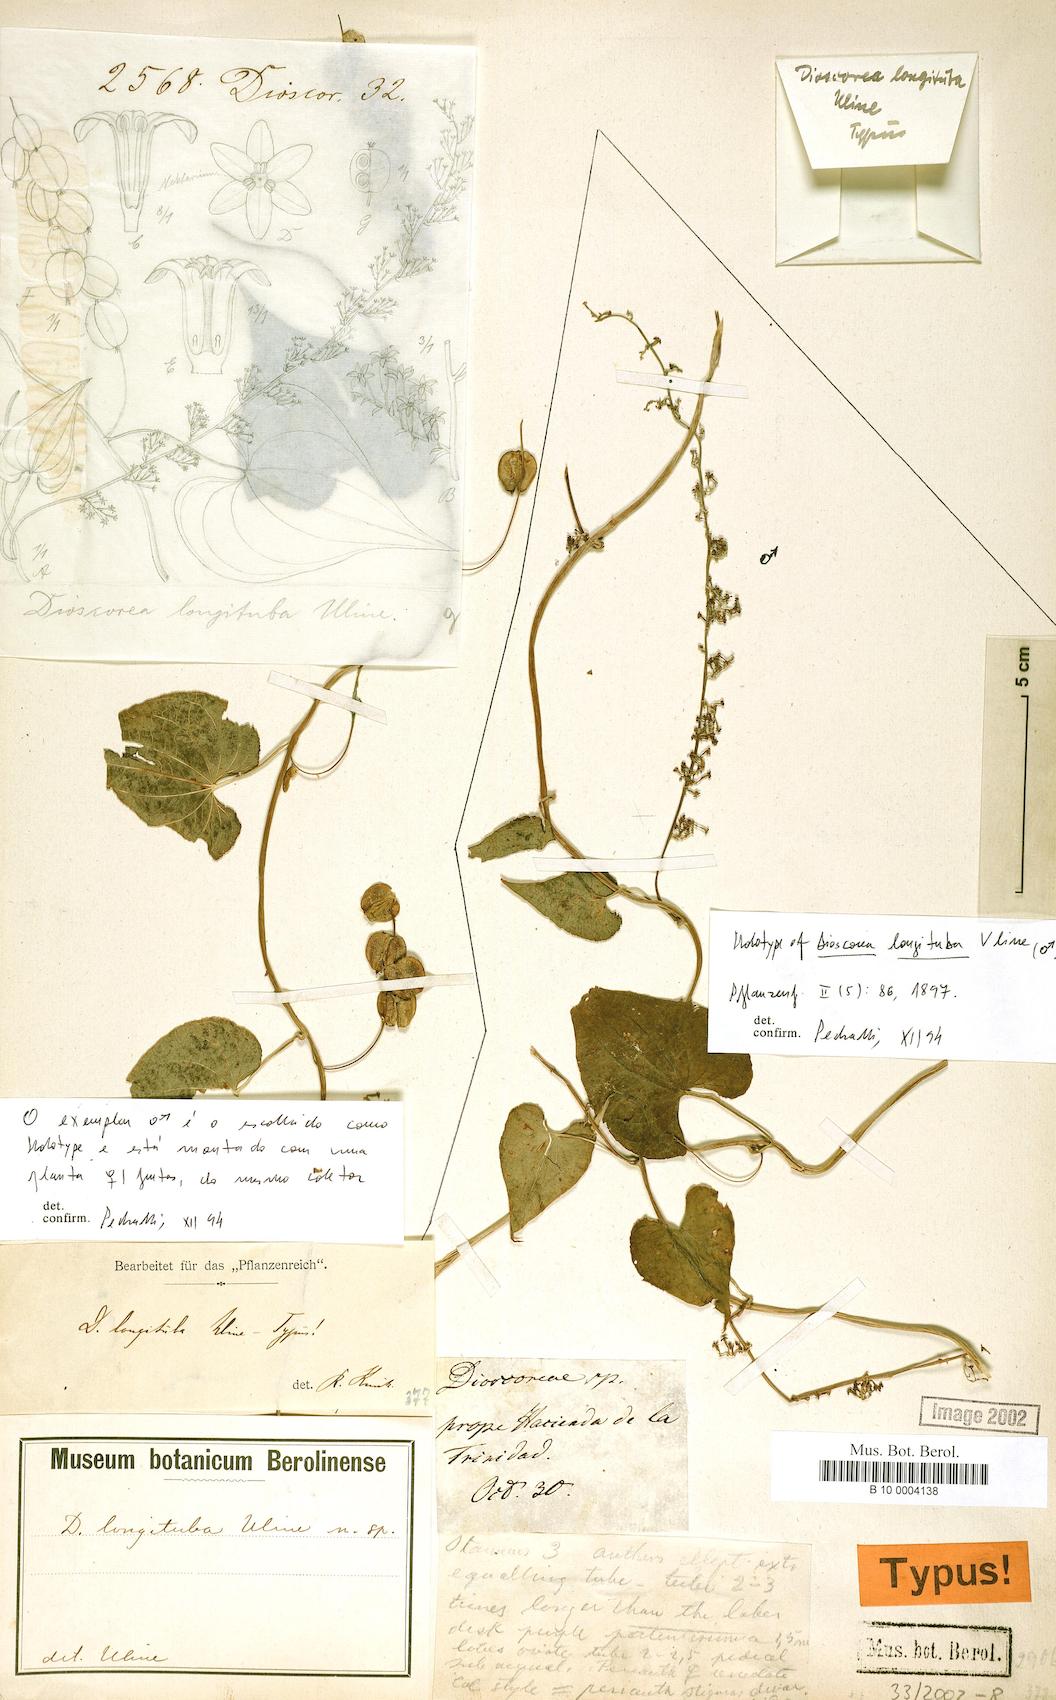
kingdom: Plantae
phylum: Tracheophyta
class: Liliopsida
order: Dioscoreales
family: Dioscoreaceae
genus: Dioscorea
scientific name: Dioscorea longituba
